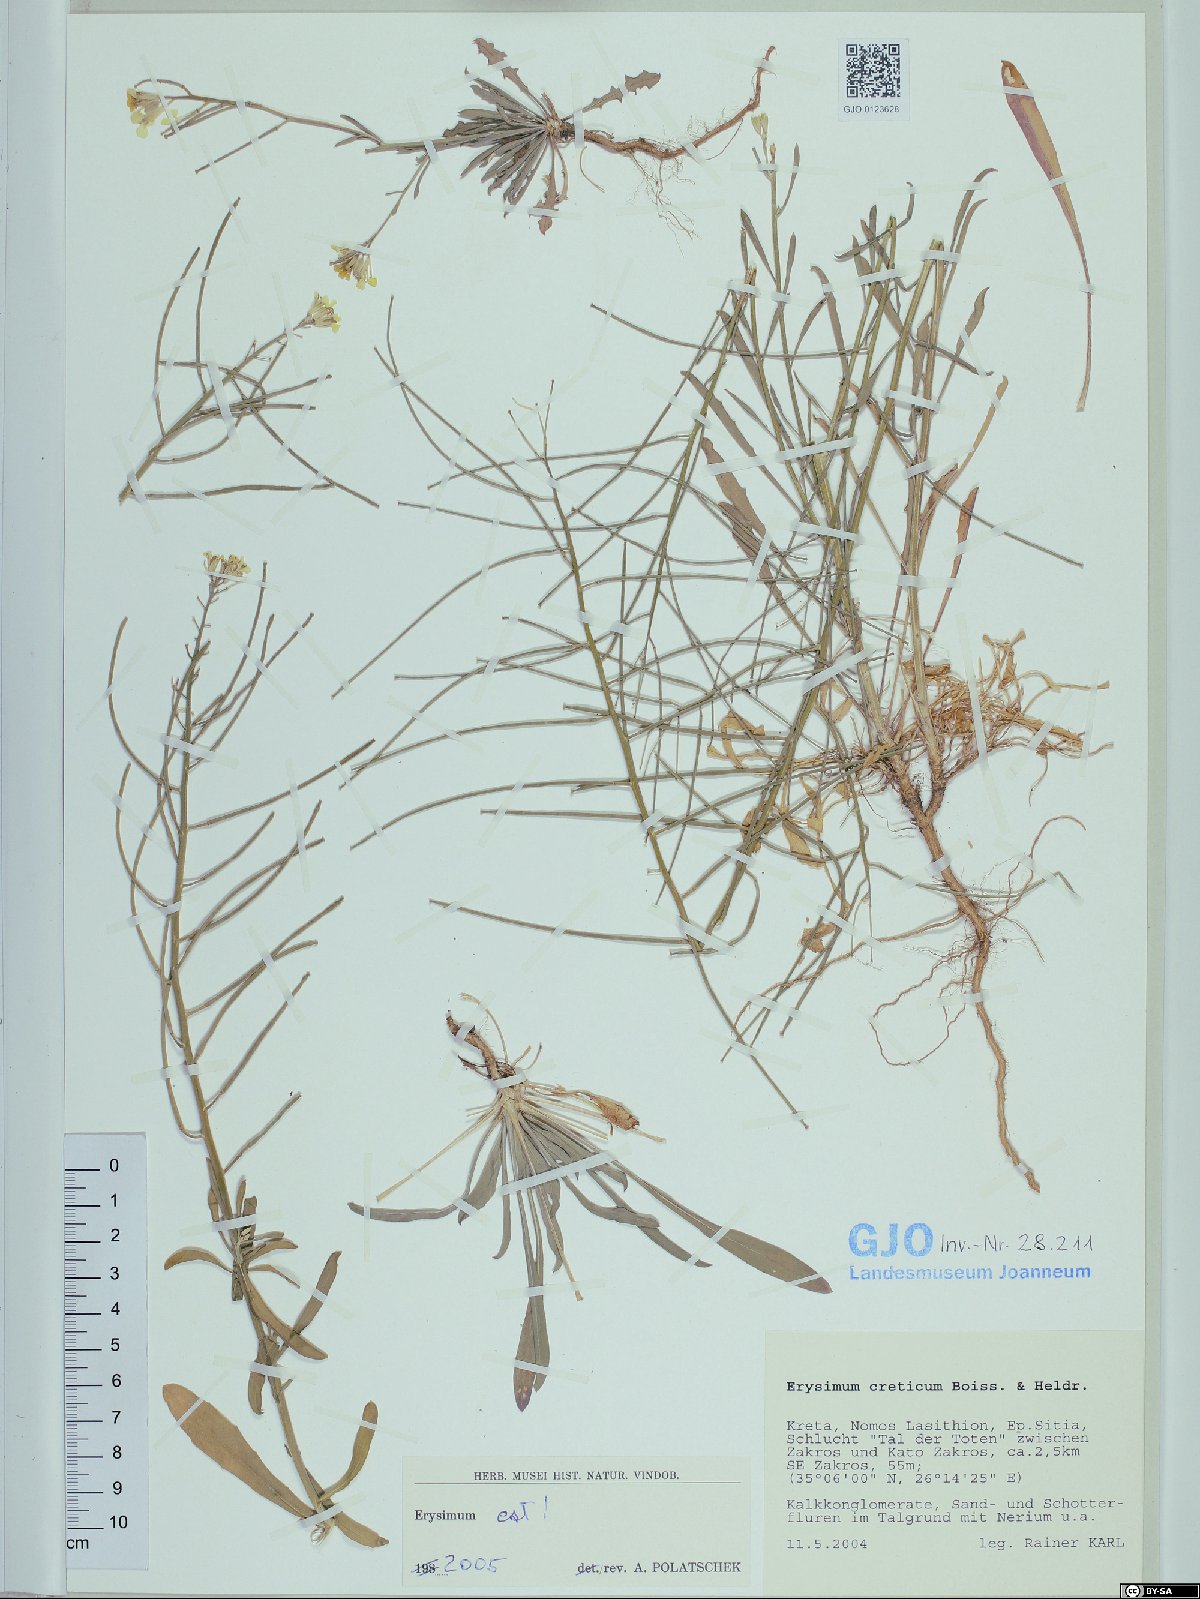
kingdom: Plantae
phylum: Tracheophyta
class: Magnoliopsida
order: Brassicales
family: Brassicaceae
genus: Erysimum
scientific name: Erysimum creticum
